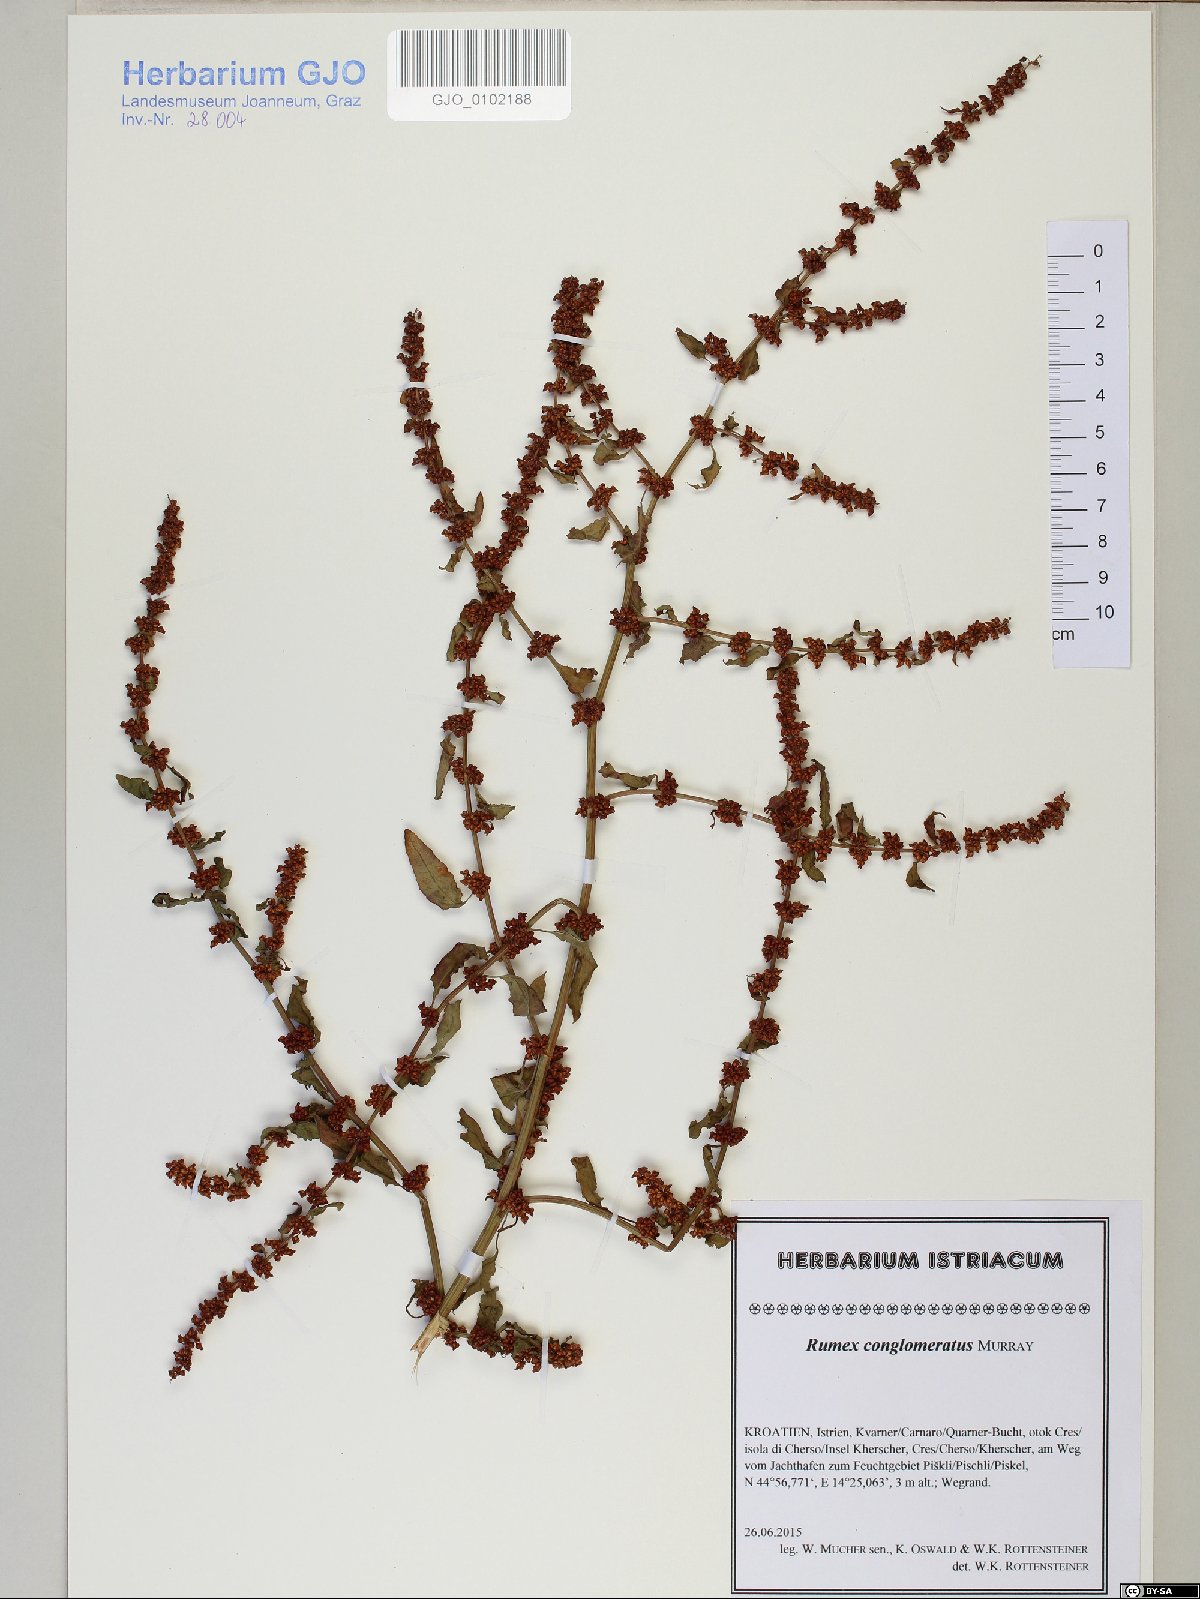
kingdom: Plantae
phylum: Tracheophyta
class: Magnoliopsida
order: Caryophyllales
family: Polygonaceae
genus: Rumex
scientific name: Rumex conglomeratus
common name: Clustered dock
